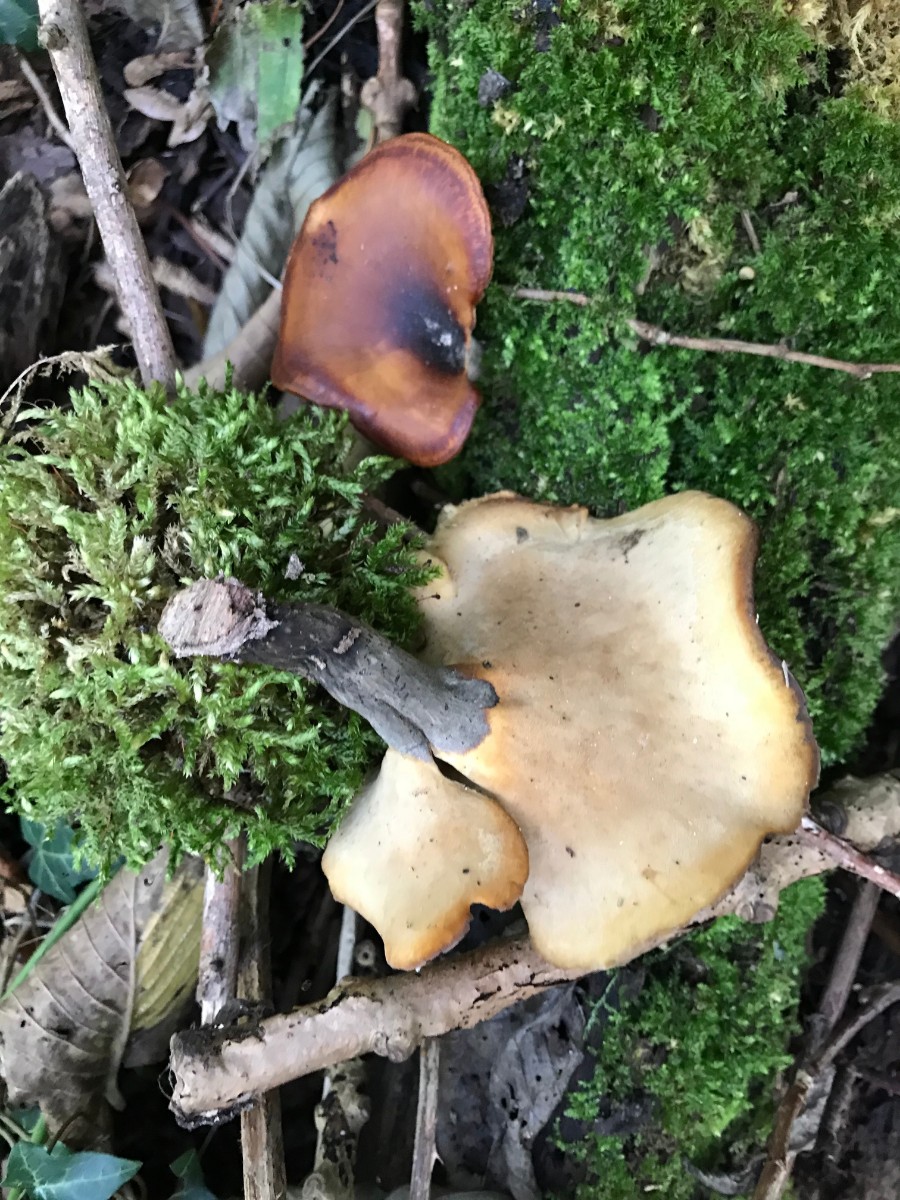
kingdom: Fungi
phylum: Basidiomycota
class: Agaricomycetes
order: Polyporales
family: Polyporaceae
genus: Picipes
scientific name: Picipes badius
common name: kastaniebrun stilkporesvamp
